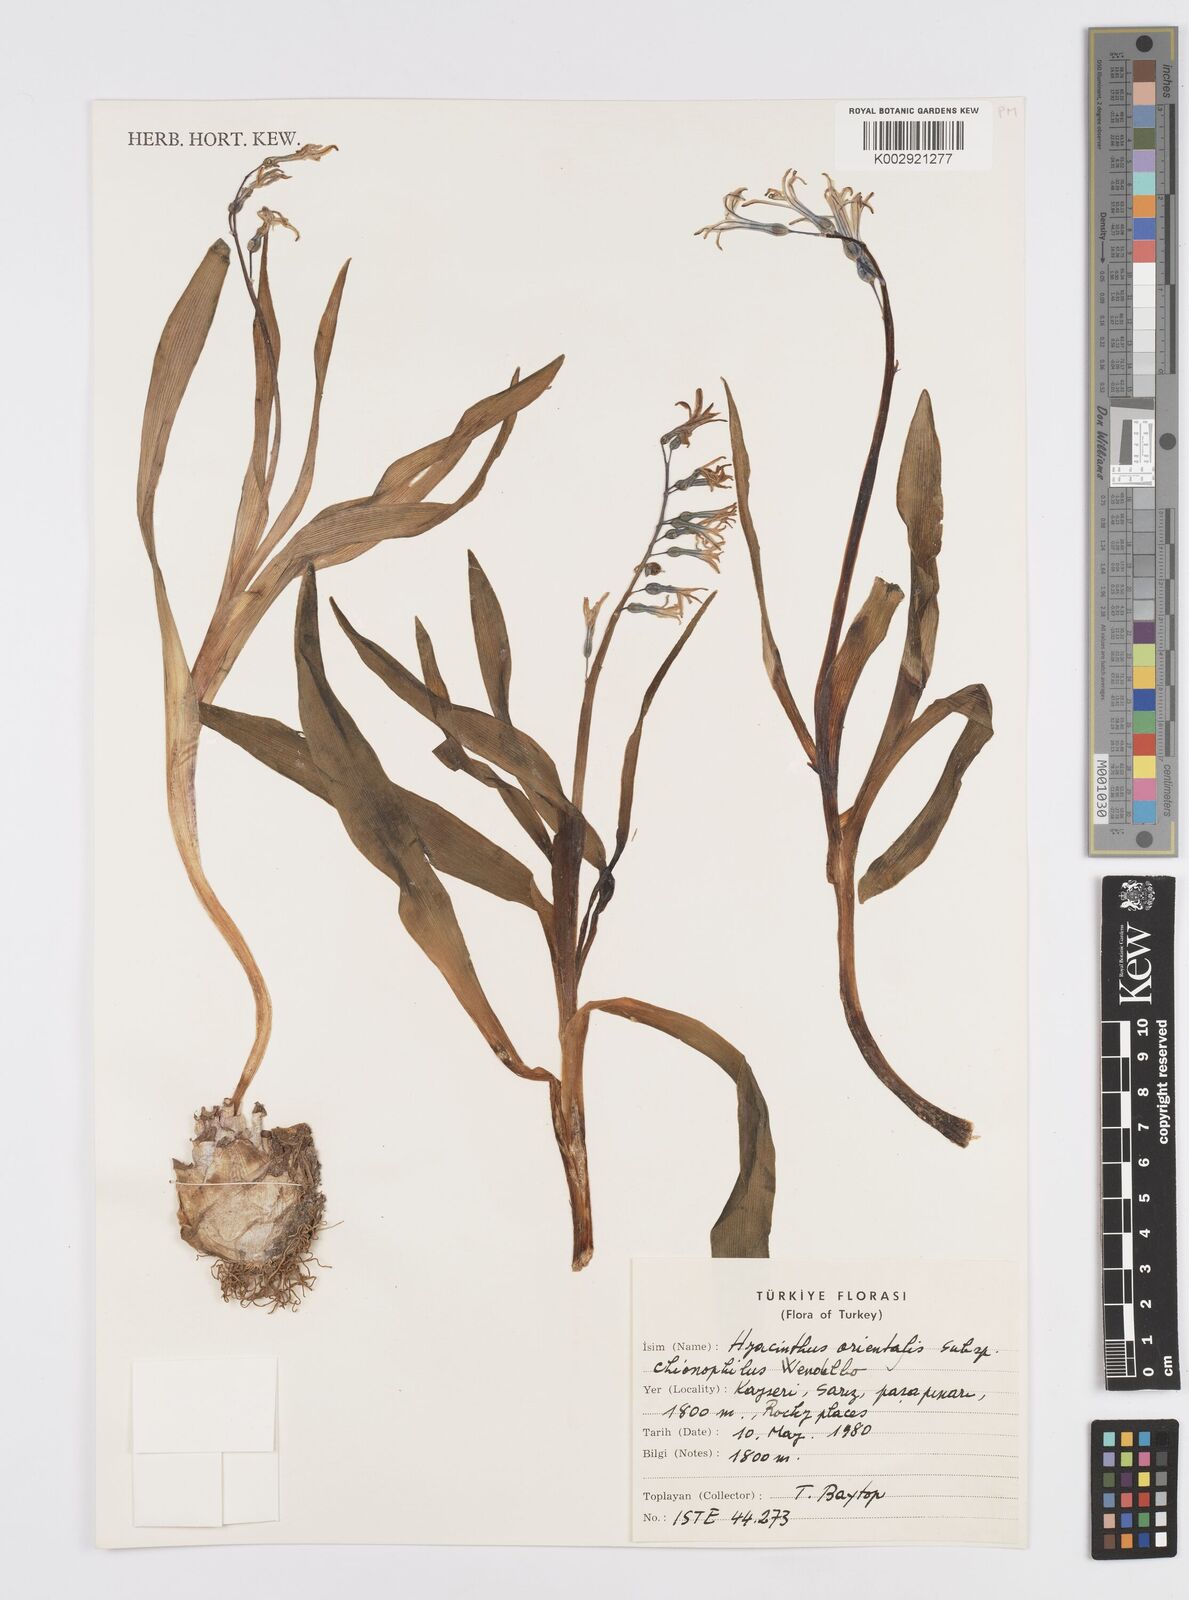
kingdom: Plantae
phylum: Tracheophyta
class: Liliopsida
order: Asparagales
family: Asparagaceae
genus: Hyacinthus
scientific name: Hyacinthus orientalis
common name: Hyacinth
